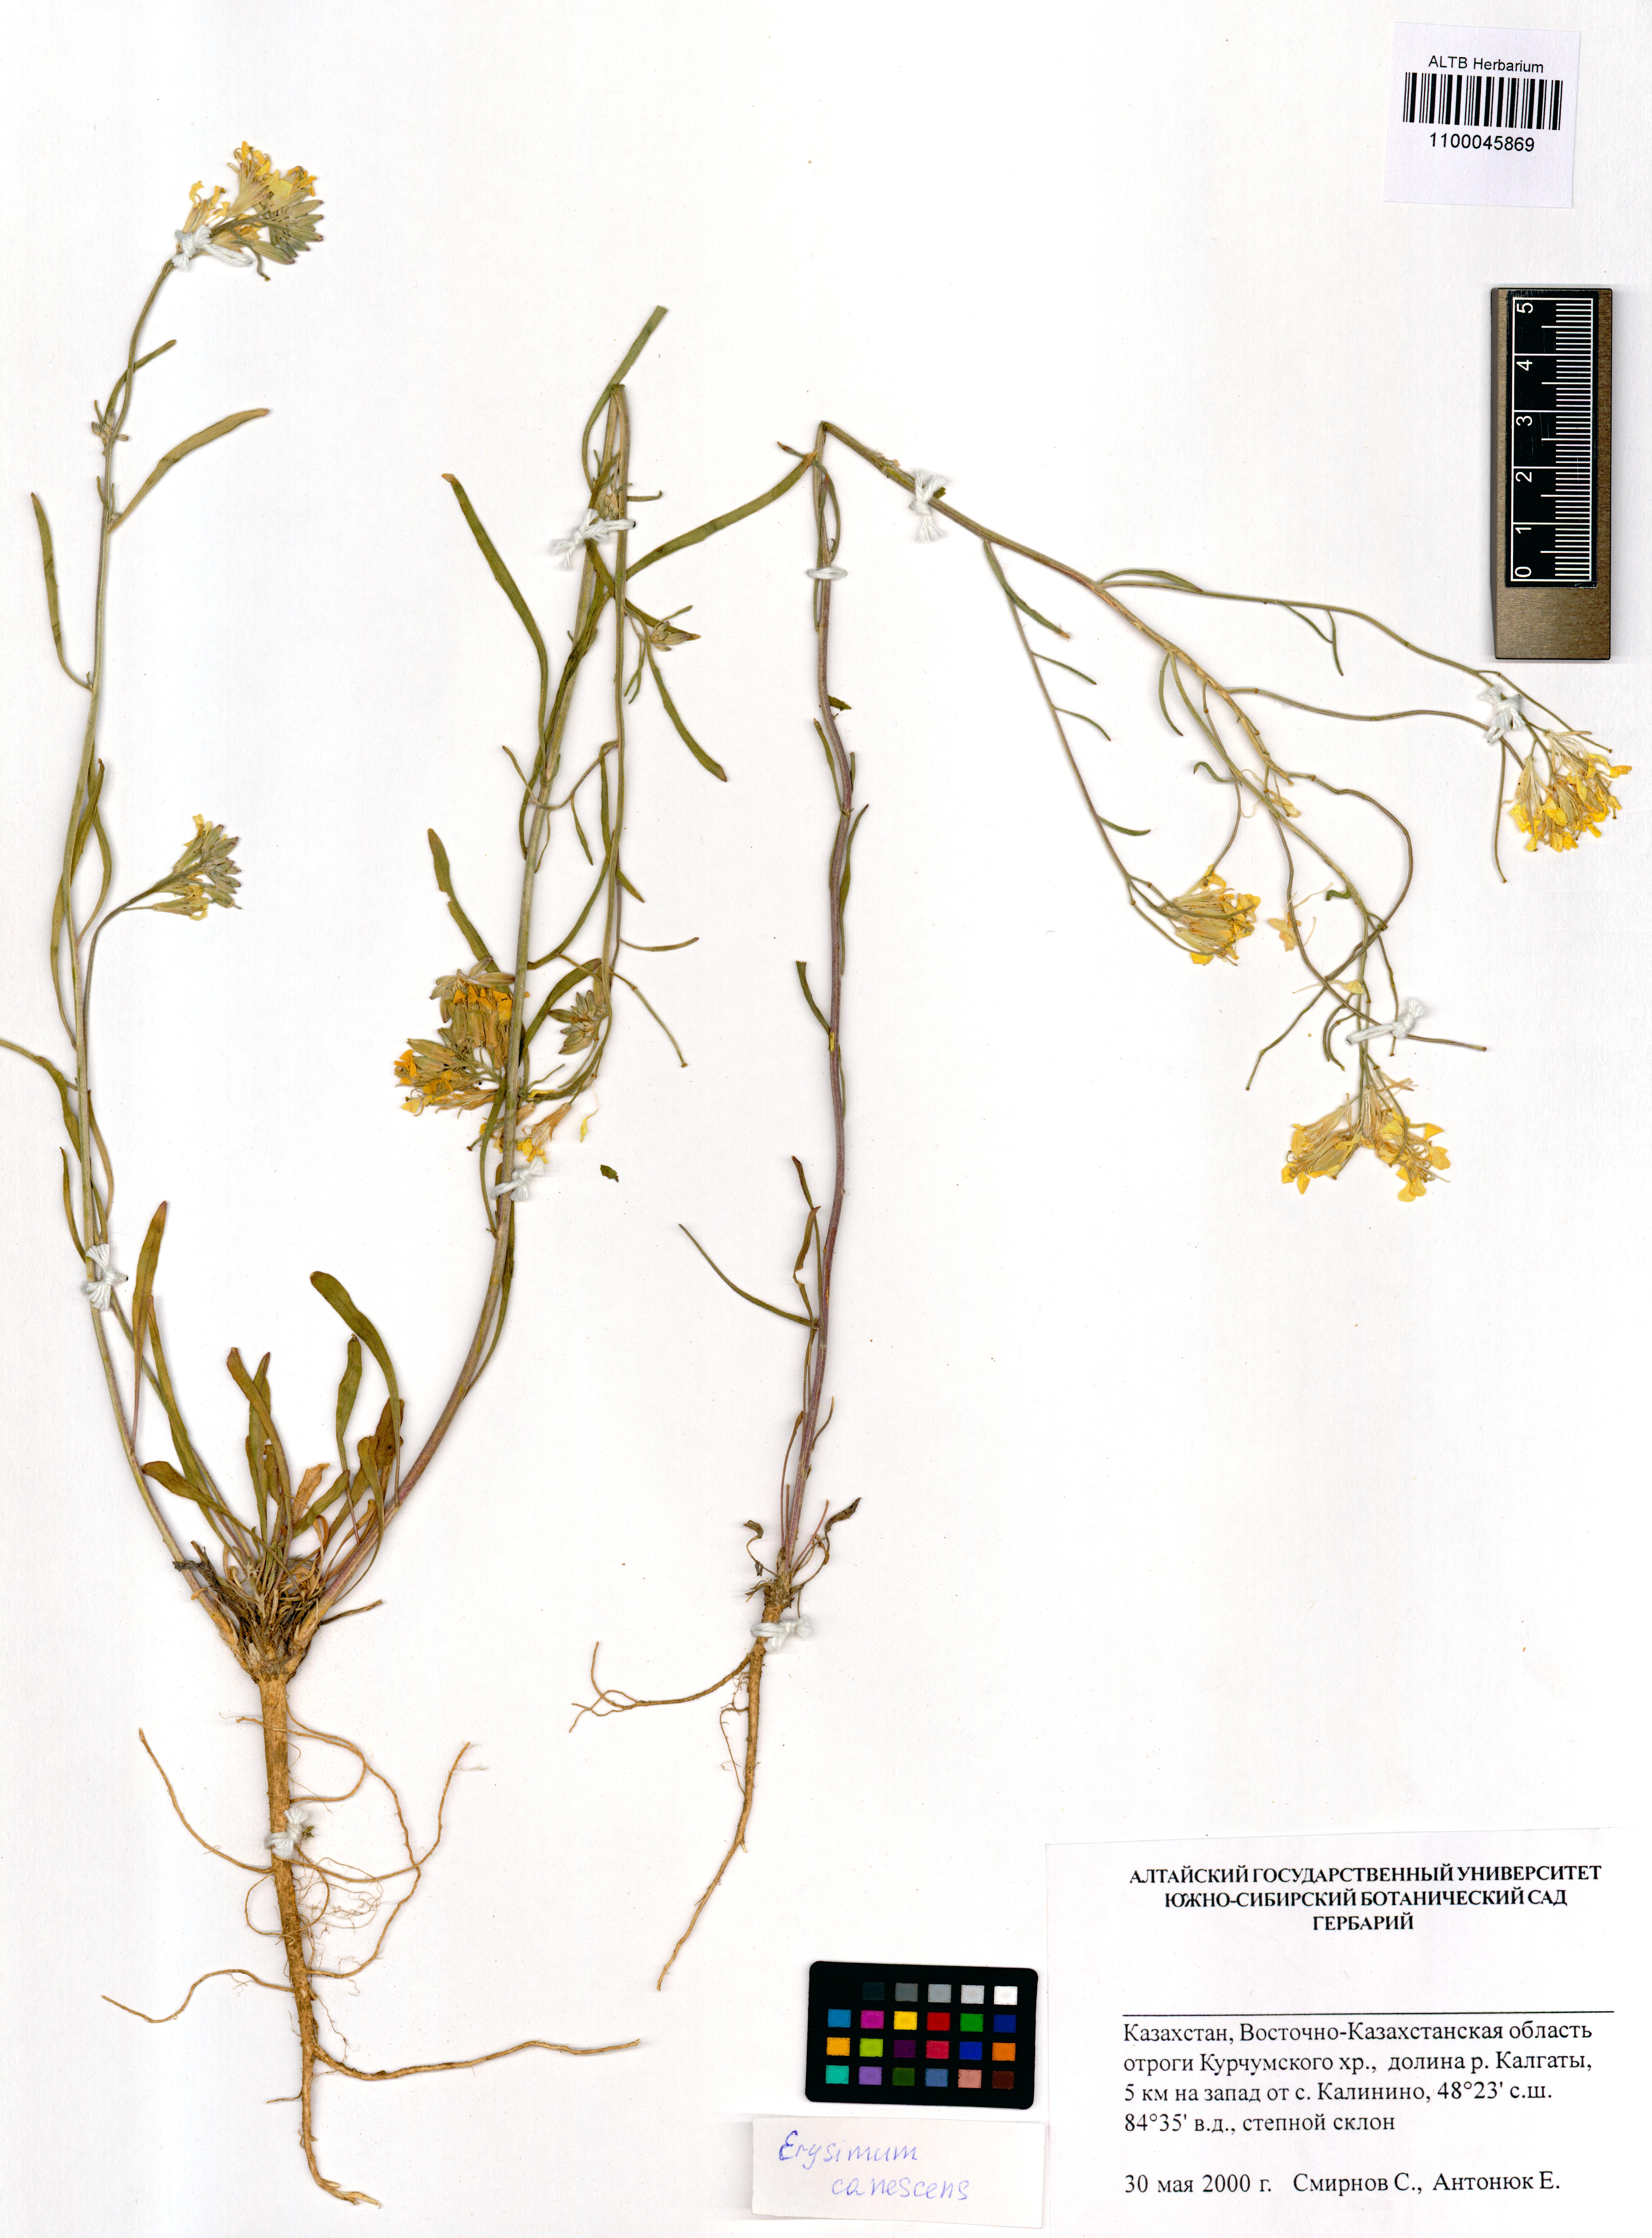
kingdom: Plantae
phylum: Tracheophyta
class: Magnoliopsida
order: Brassicales
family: Brassicaceae
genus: Erysimum
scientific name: Erysimum canescens
